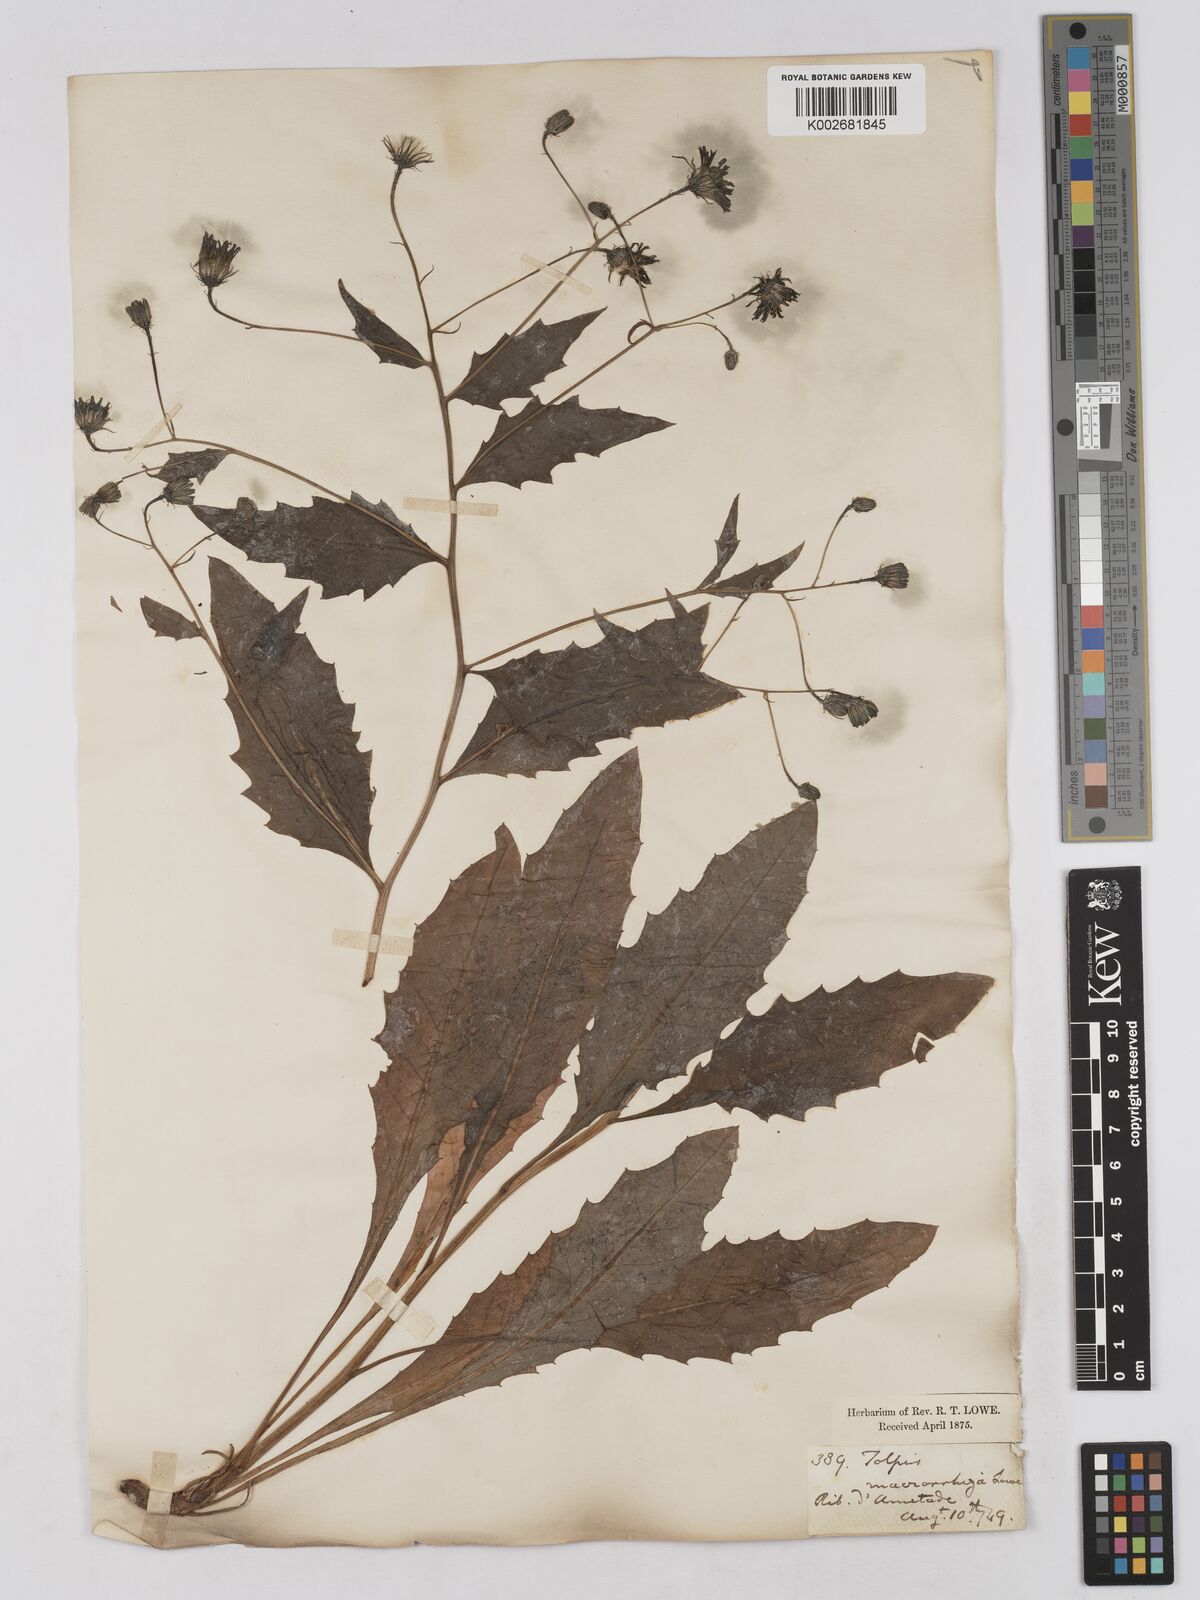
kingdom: Plantae
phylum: Tracheophyta
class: Magnoliopsida
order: Asterales
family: Asteraceae
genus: Tolpis
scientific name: Tolpis macrorhiza
